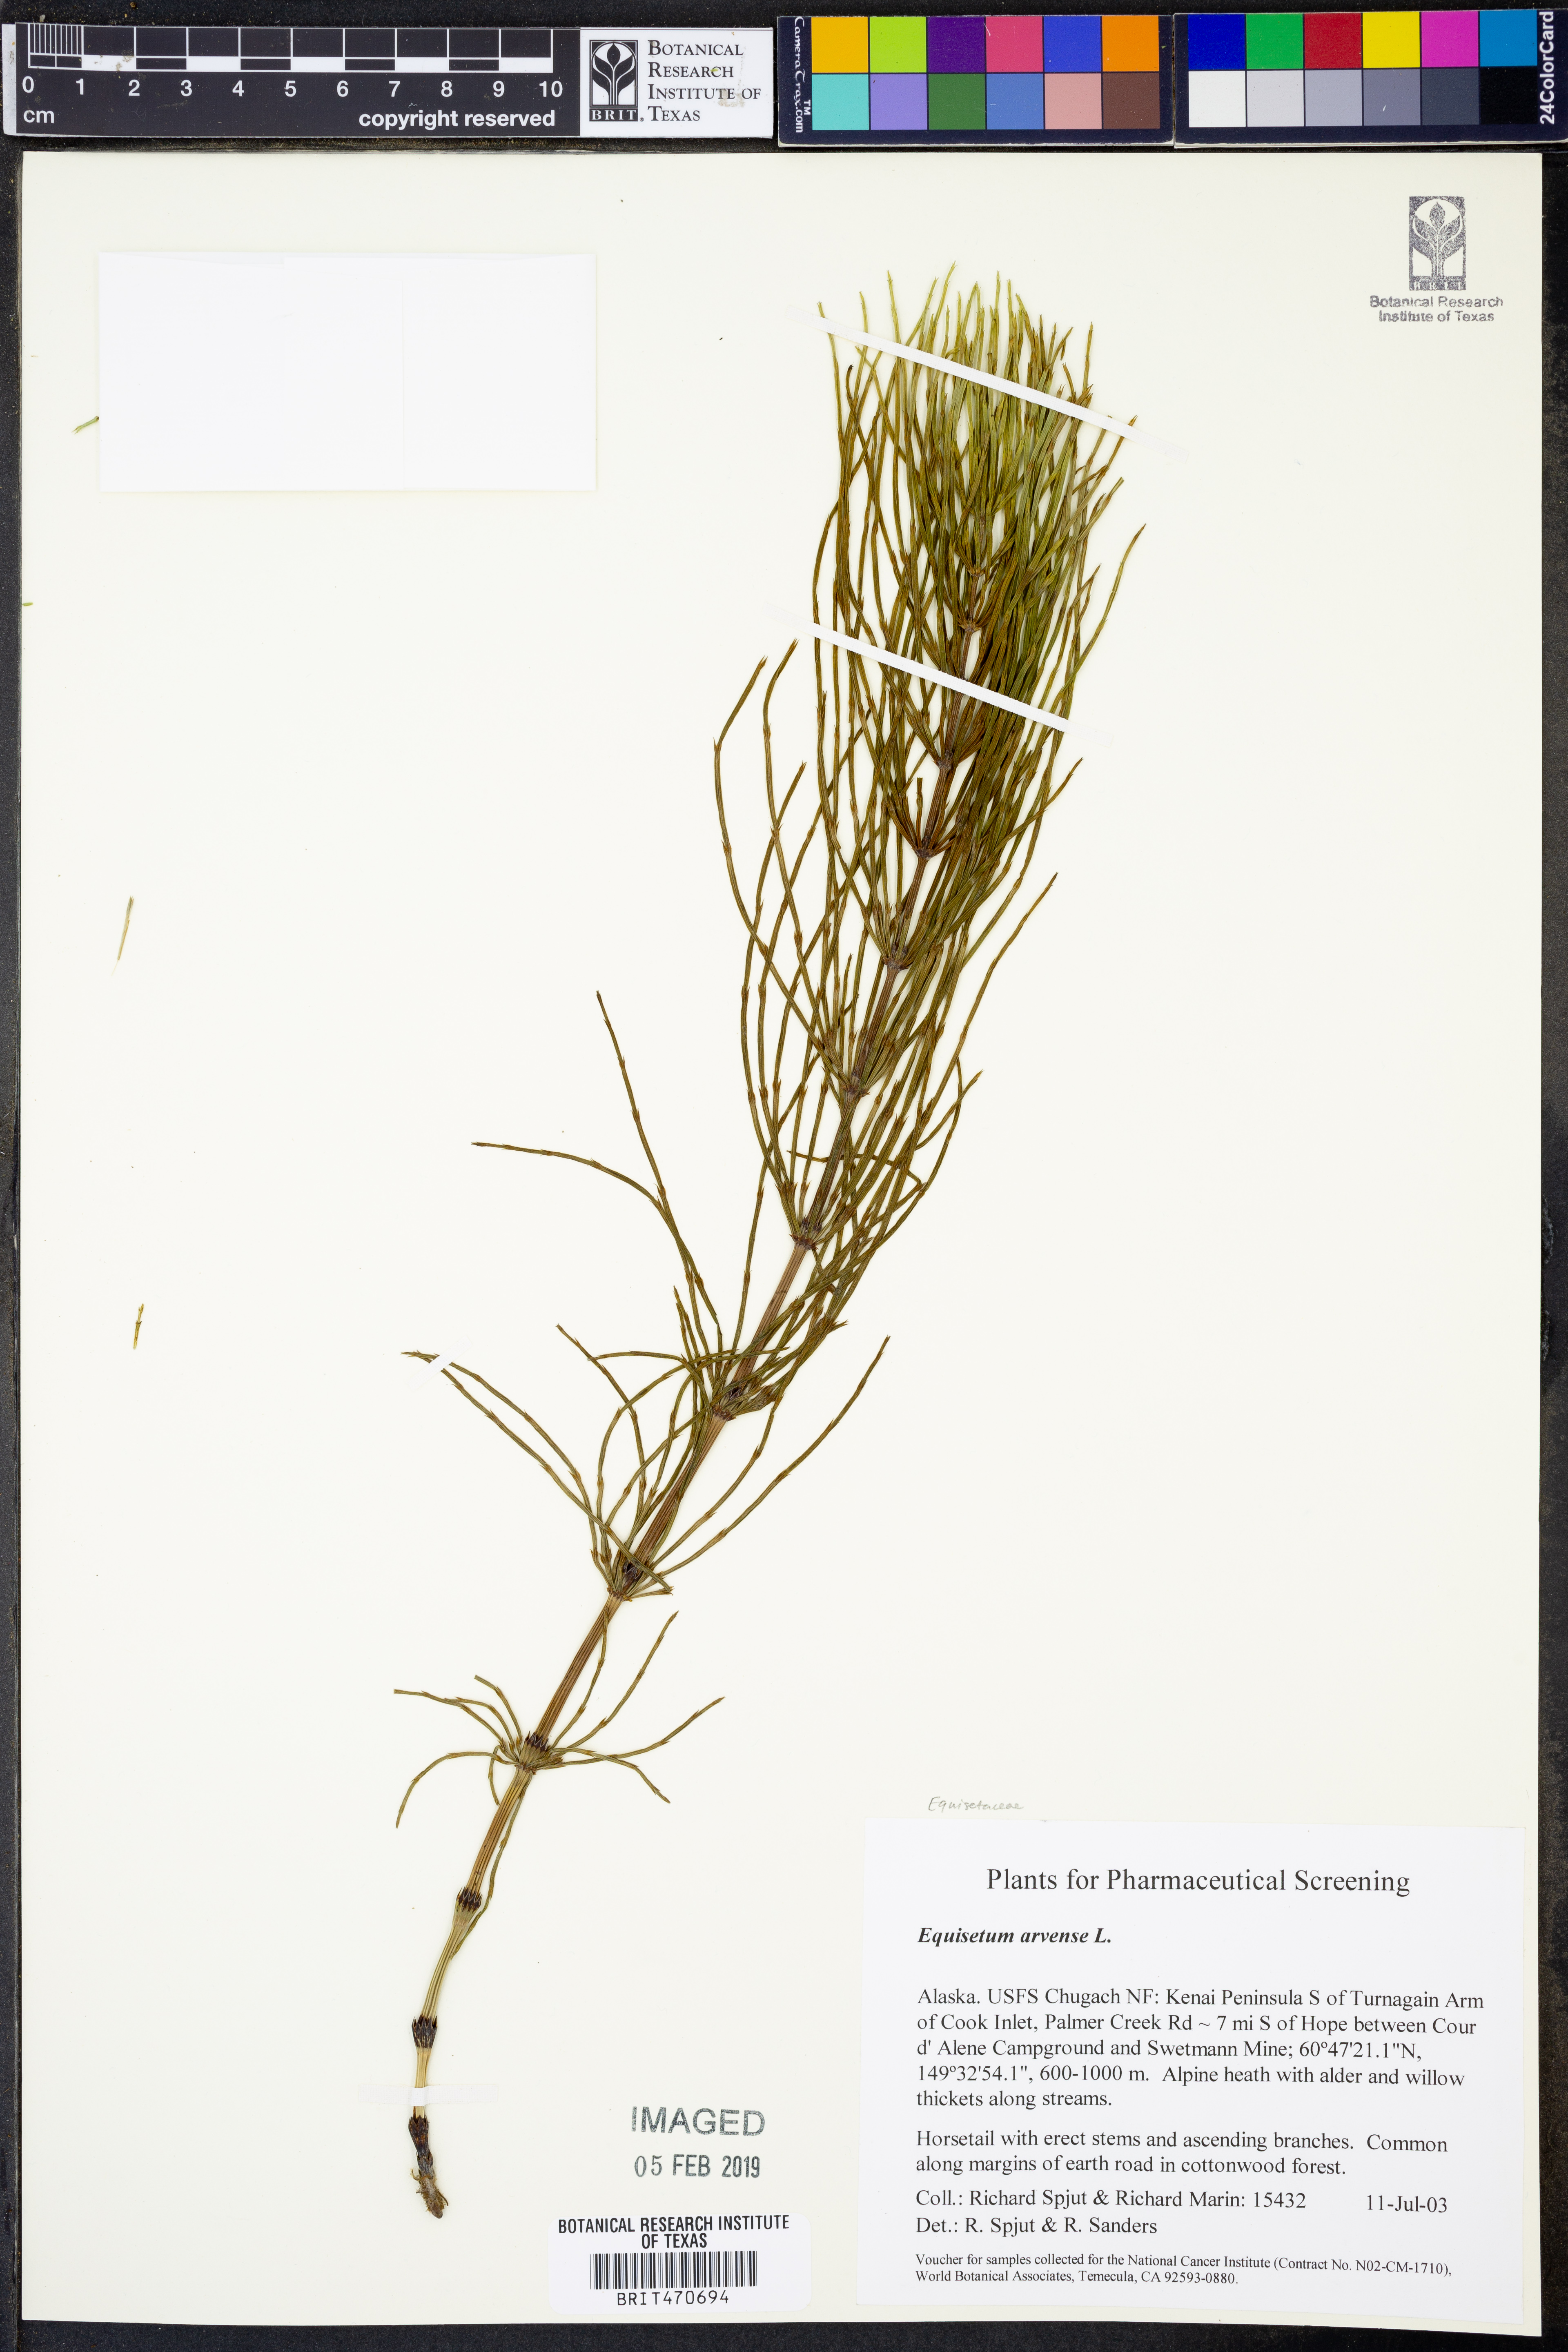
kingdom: Plantae
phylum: Tracheophyta
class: Polypodiopsida
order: Equisetales
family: Equisetaceae
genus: Equisetum
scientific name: Equisetum arvense
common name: Field horsetail
